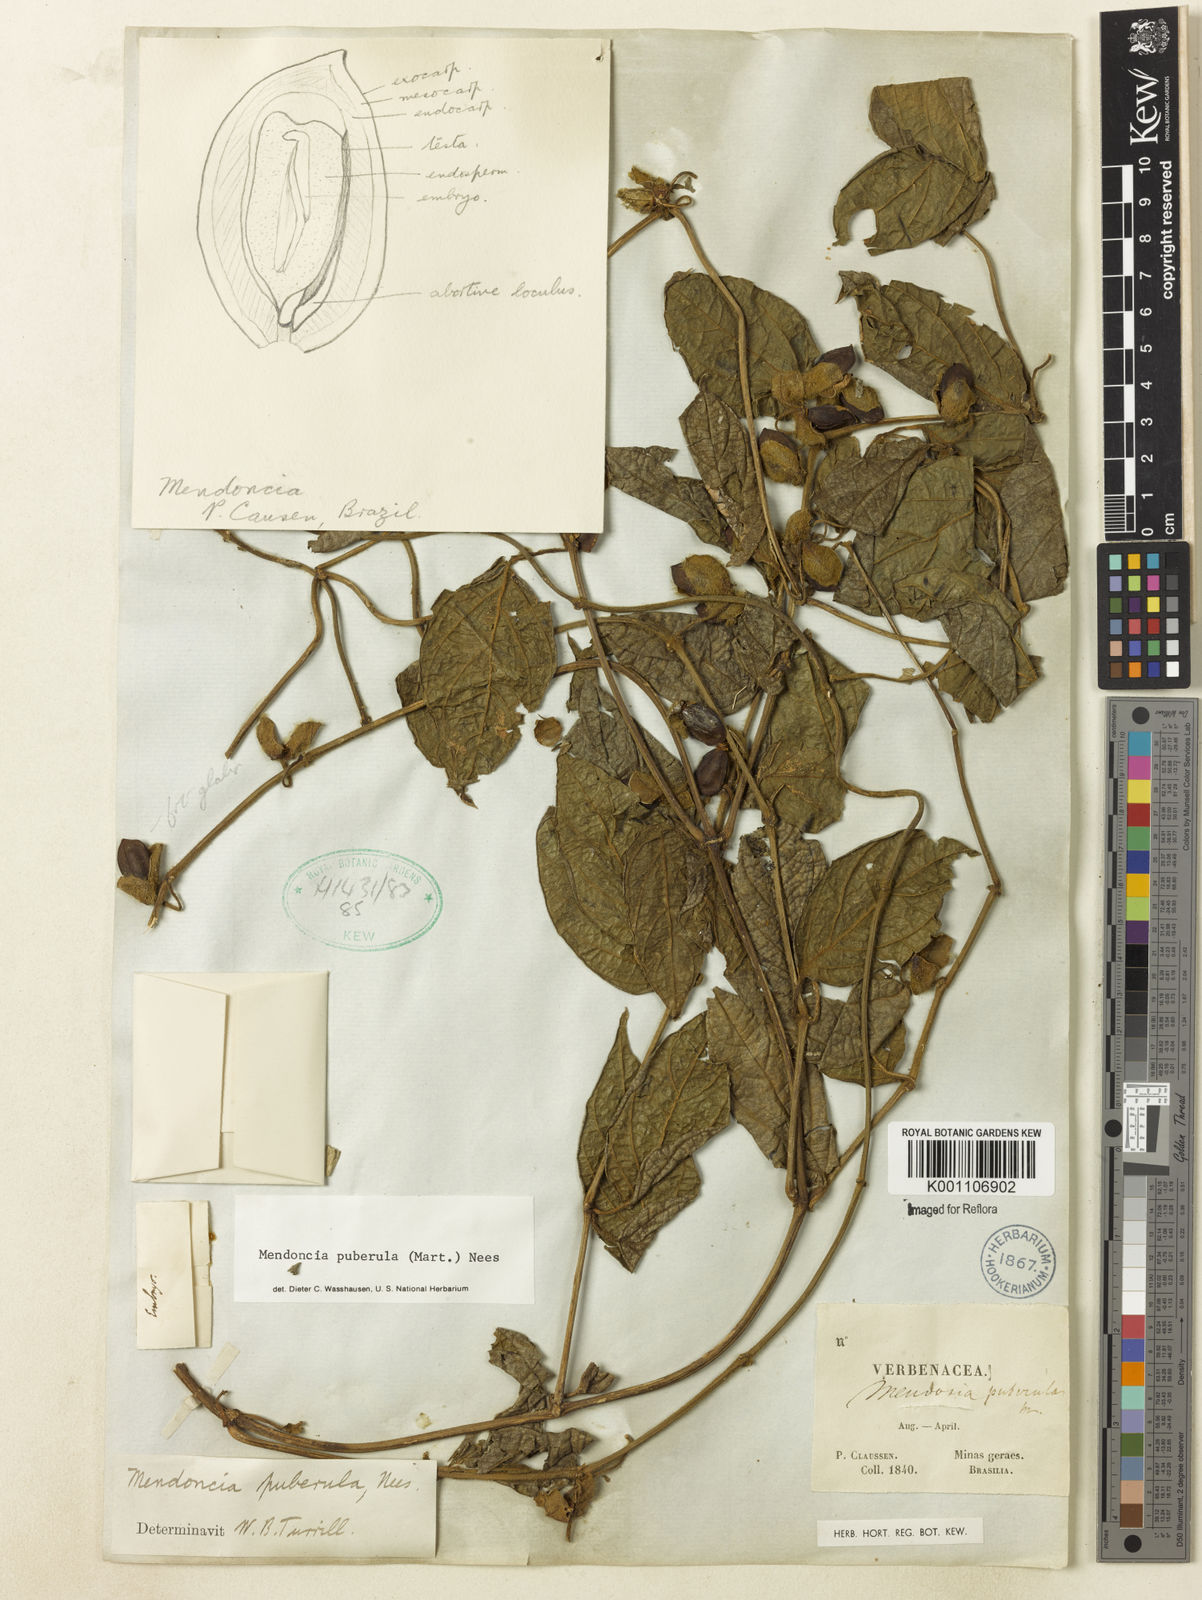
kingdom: Plantae
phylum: Tracheophyta
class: Magnoliopsida
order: Lamiales
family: Acanthaceae
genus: Mendoncia
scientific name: Mendoncia puberula
